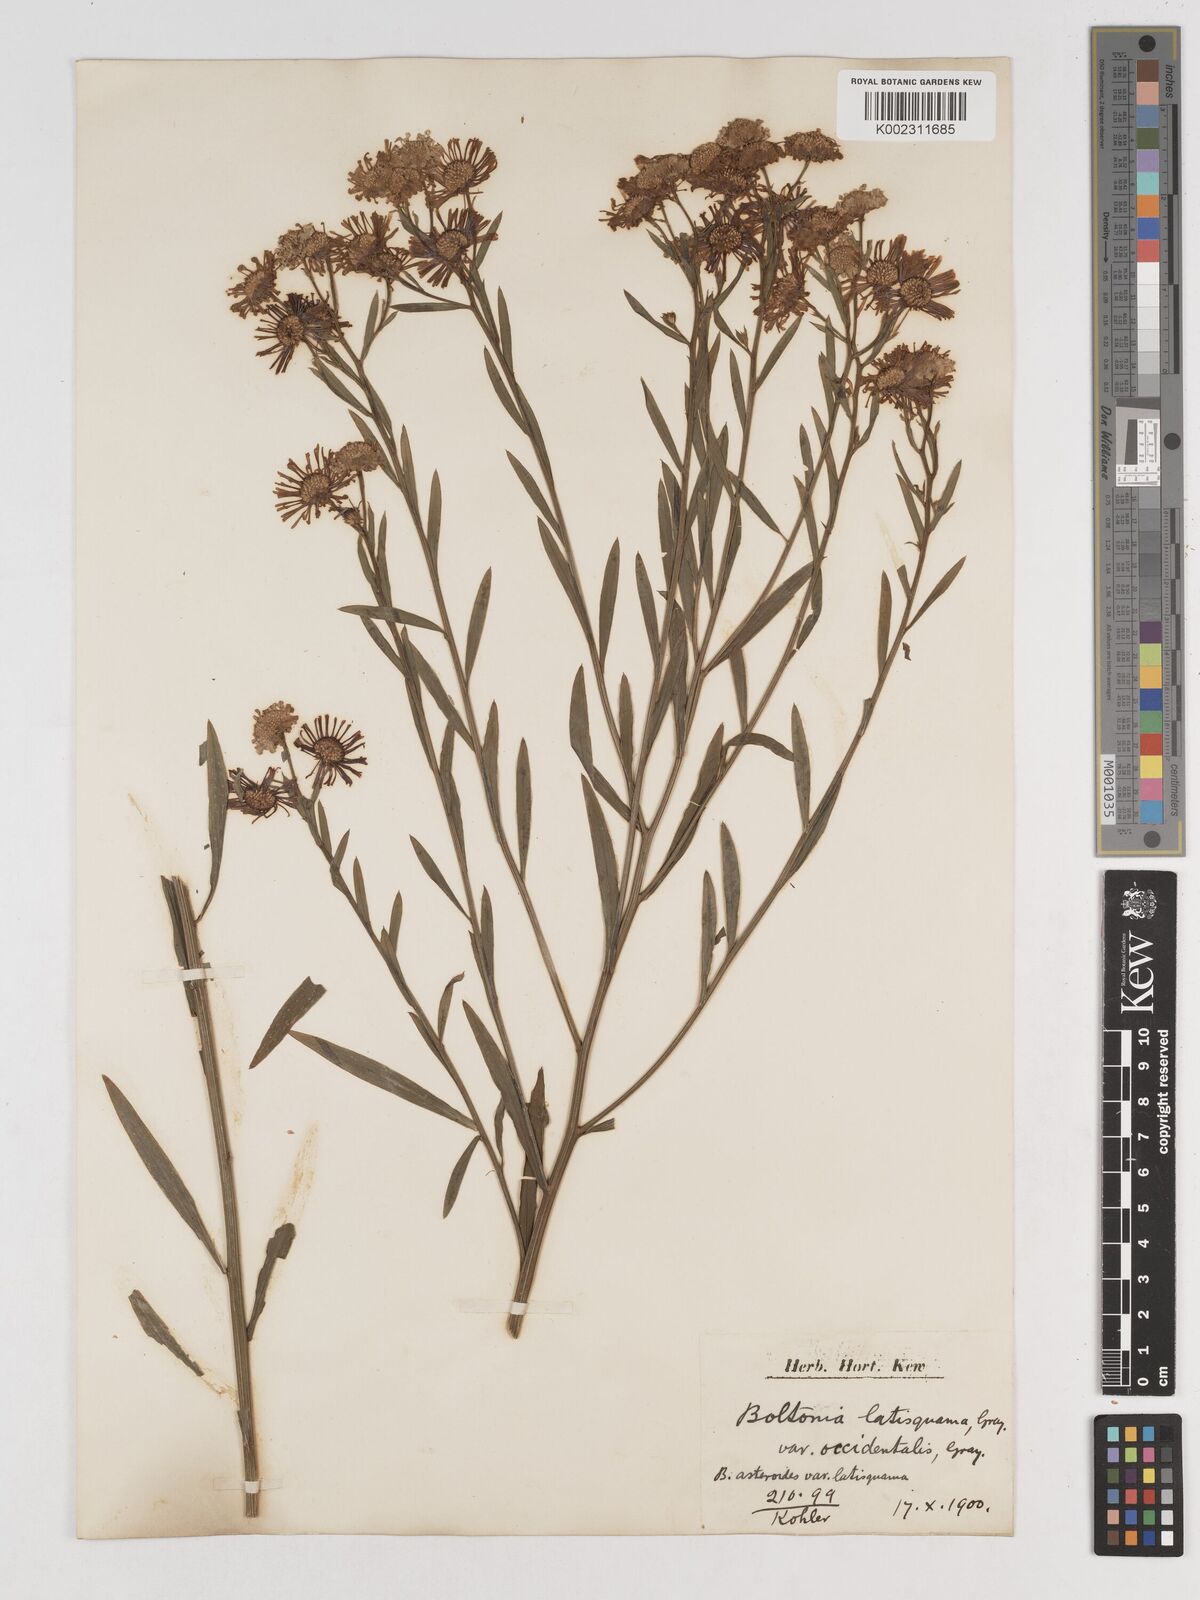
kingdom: Plantae
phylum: Tracheophyta
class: Magnoliopsida
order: Asterales
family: Asteraceae
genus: Boltonia
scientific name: Boltonia asteroides
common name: False chamomile
